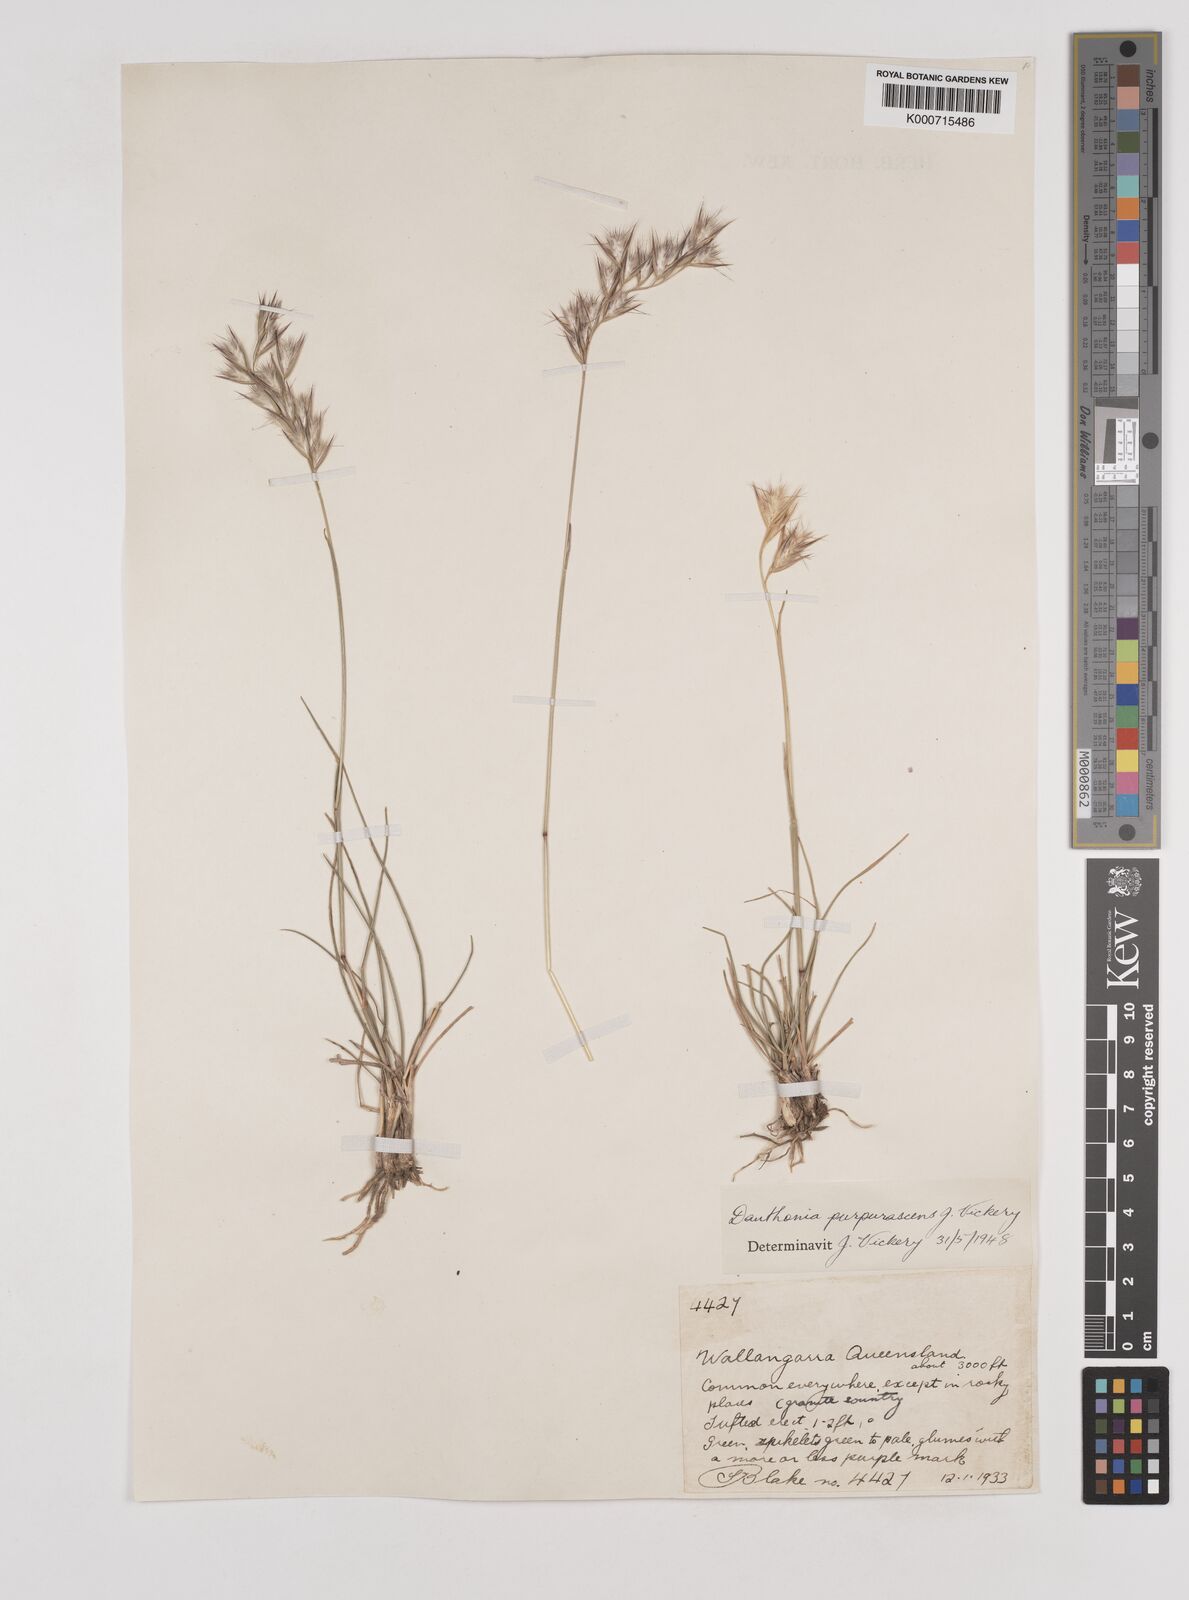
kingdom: Plantae
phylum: Tracheophyta
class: Liliopsida
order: Poales
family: Poaceae
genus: Rytidosperma
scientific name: Rytidosperma tenuius
